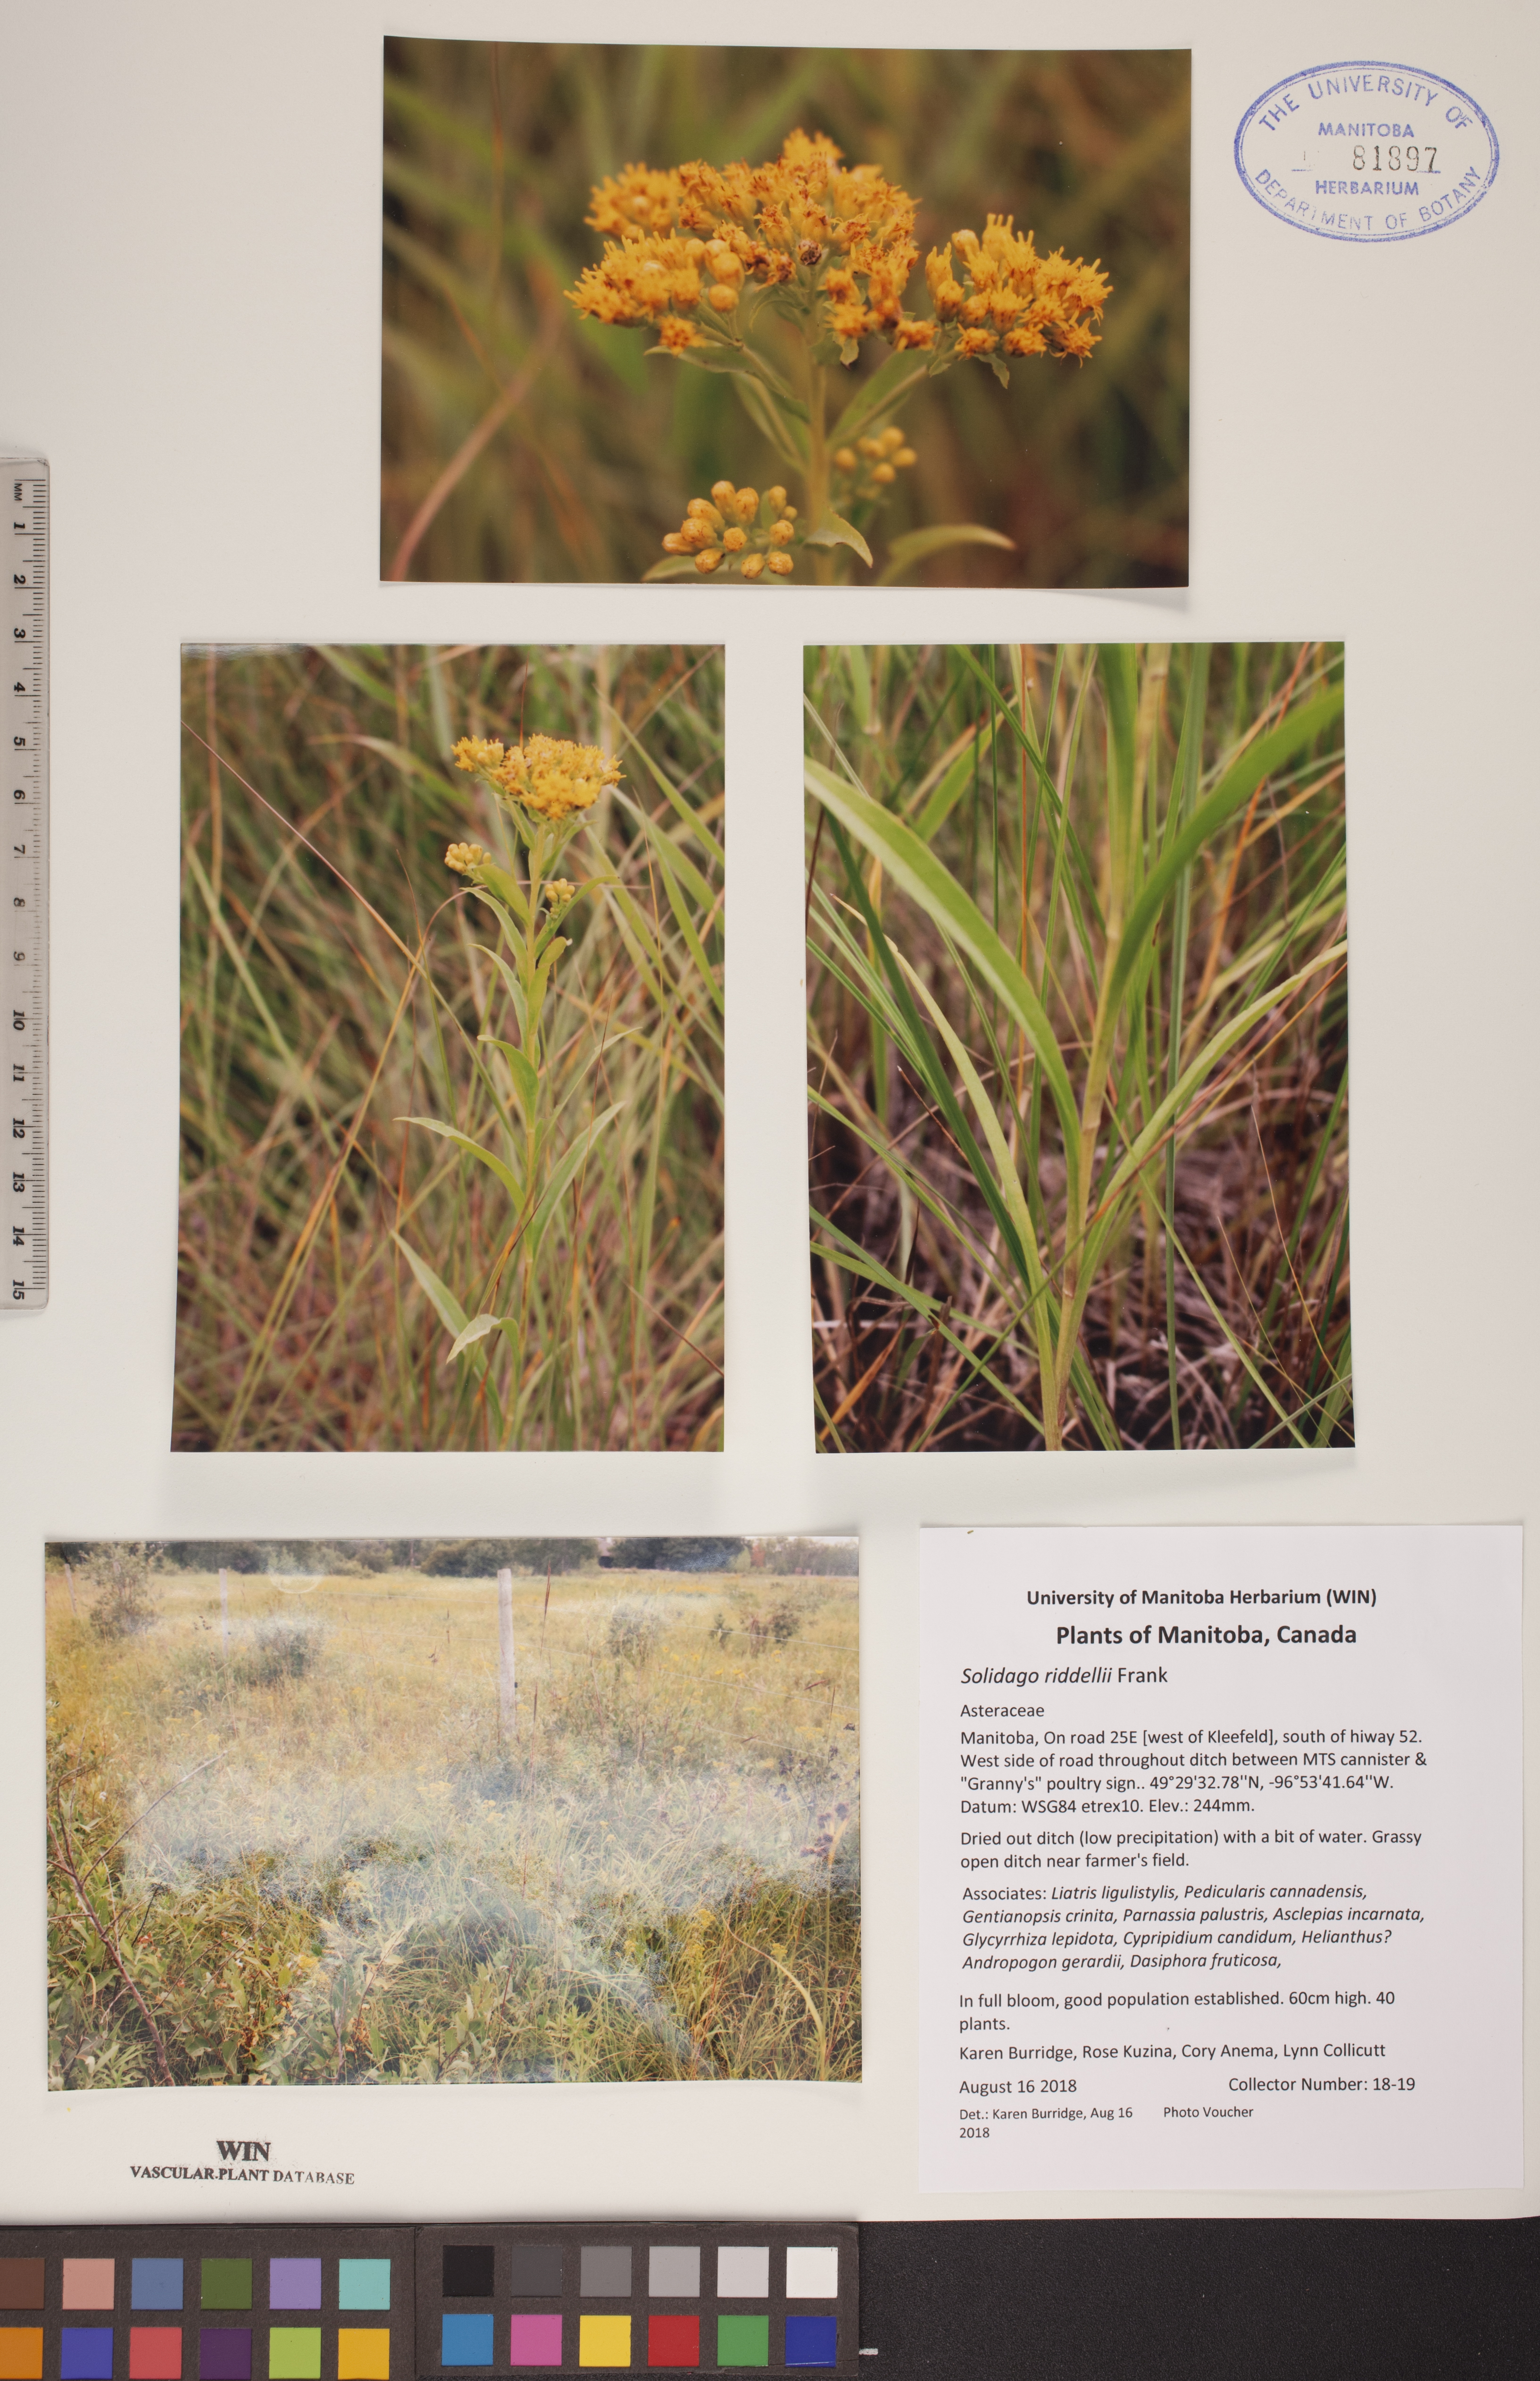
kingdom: Plantae
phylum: Tracheophyta
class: Magnoliopsida
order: Asterales
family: Asteraceae
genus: Solidago
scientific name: Solidago riddellii
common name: Riddell's goldenrod
